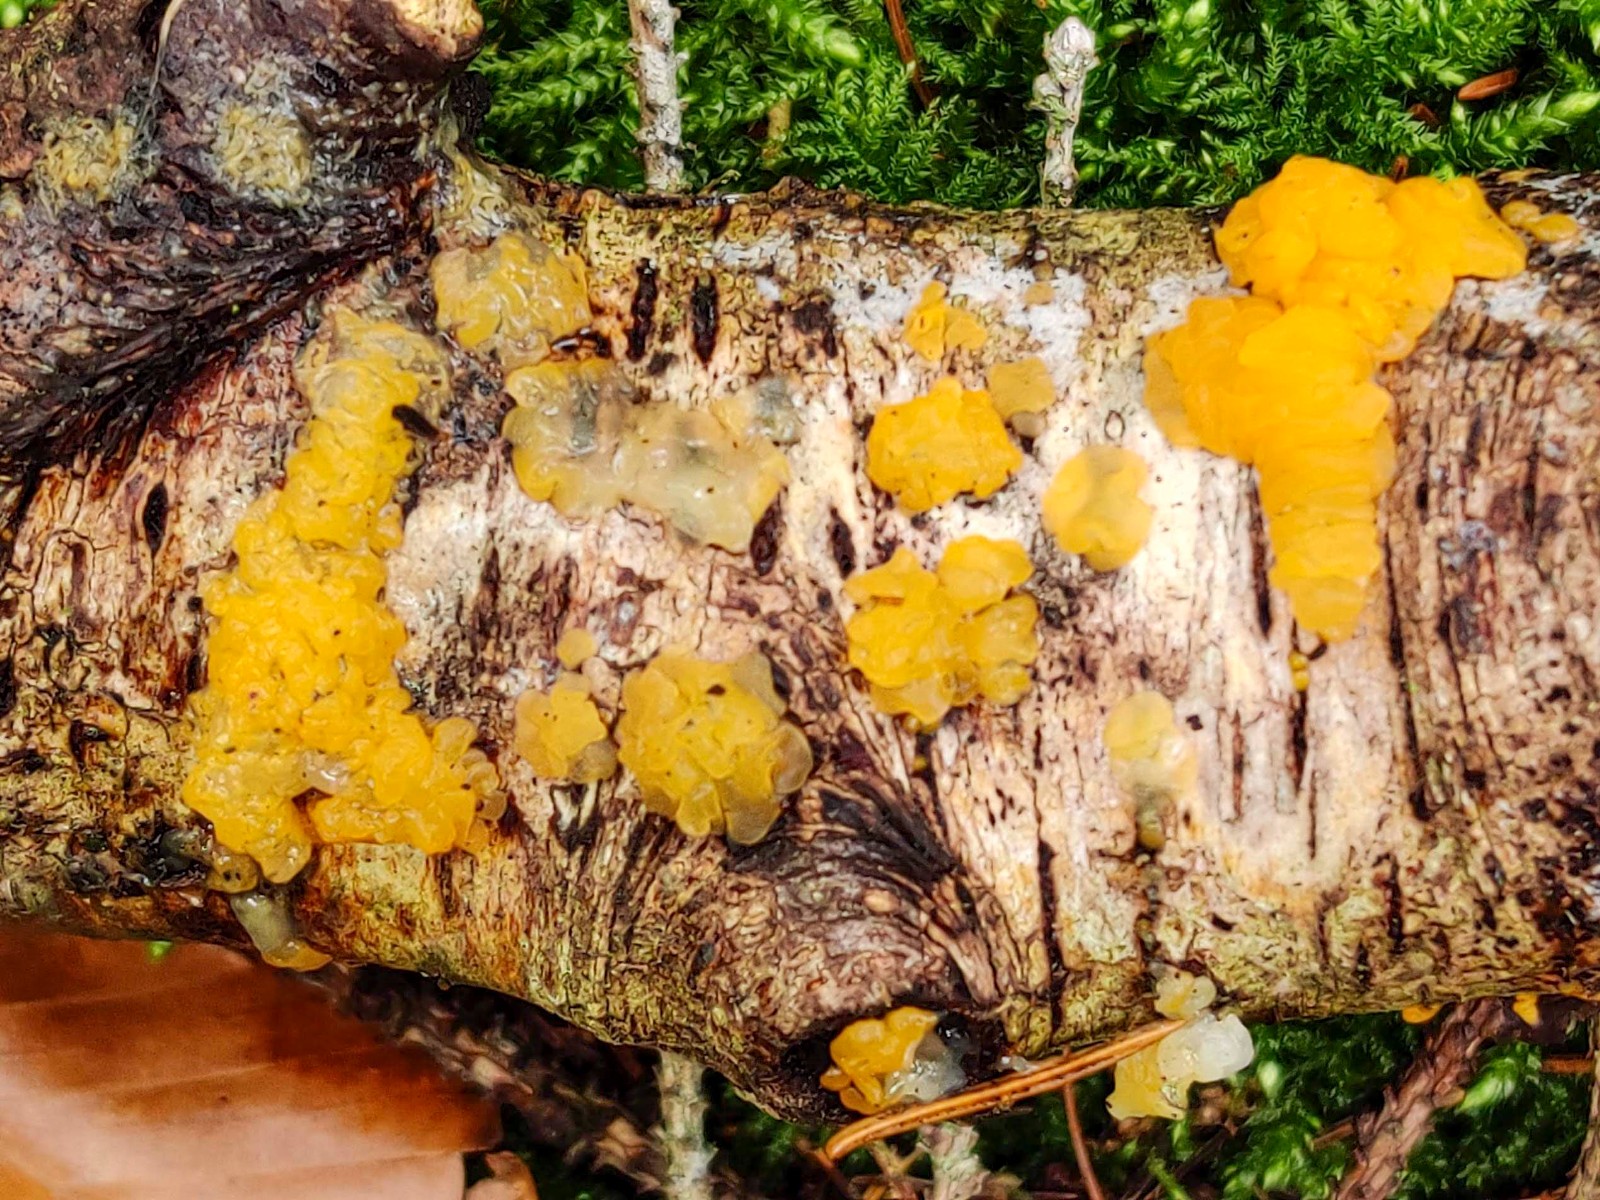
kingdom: Fungi
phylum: Basidiomycota
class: Dacrymycetes
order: Dacrymycetales
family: Dacrymycetaceae
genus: Dacrymyces
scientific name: Dacrymyces lacrymalis
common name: rynket tåresvamp
